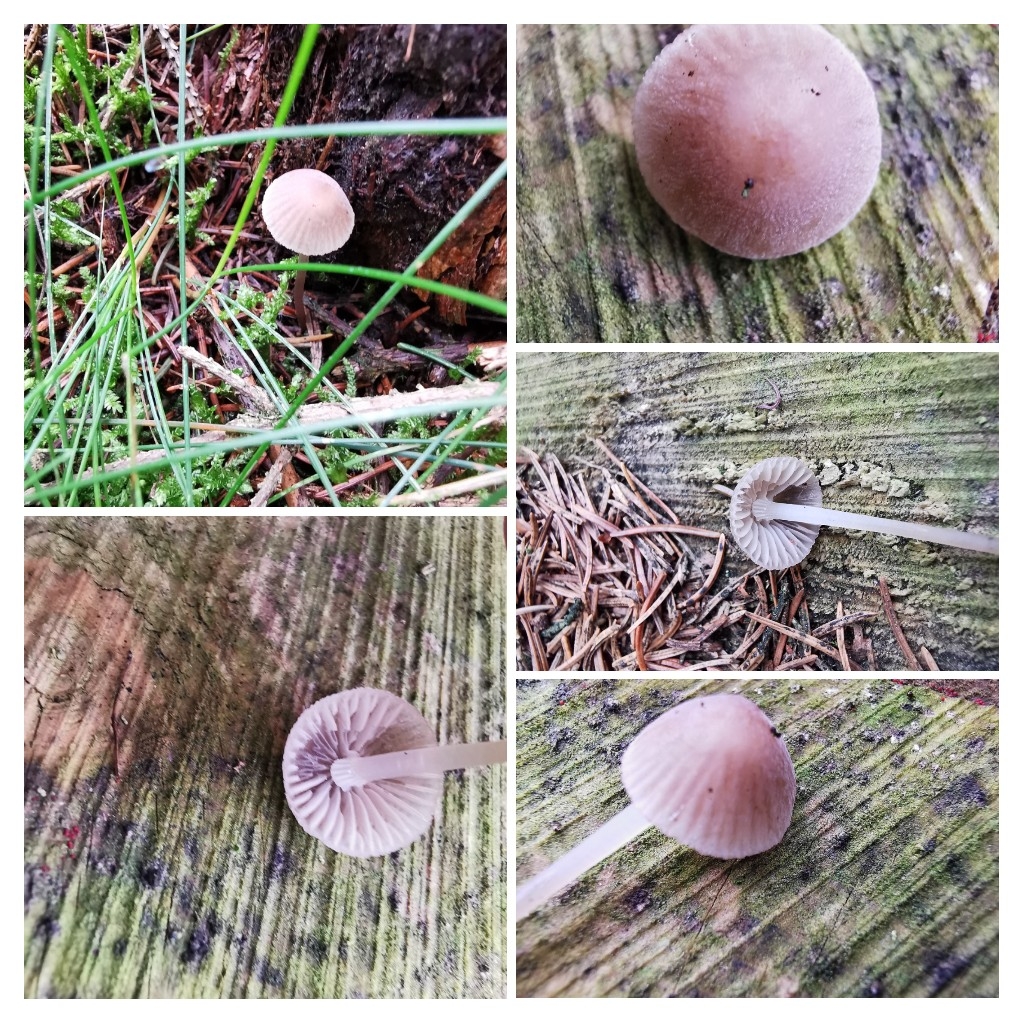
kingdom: Fungi
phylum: Basidiomycota
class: Agaricomycetes
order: Agaricales
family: Mycenaceae
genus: Mycena
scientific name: Mycena
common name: huesvamp
